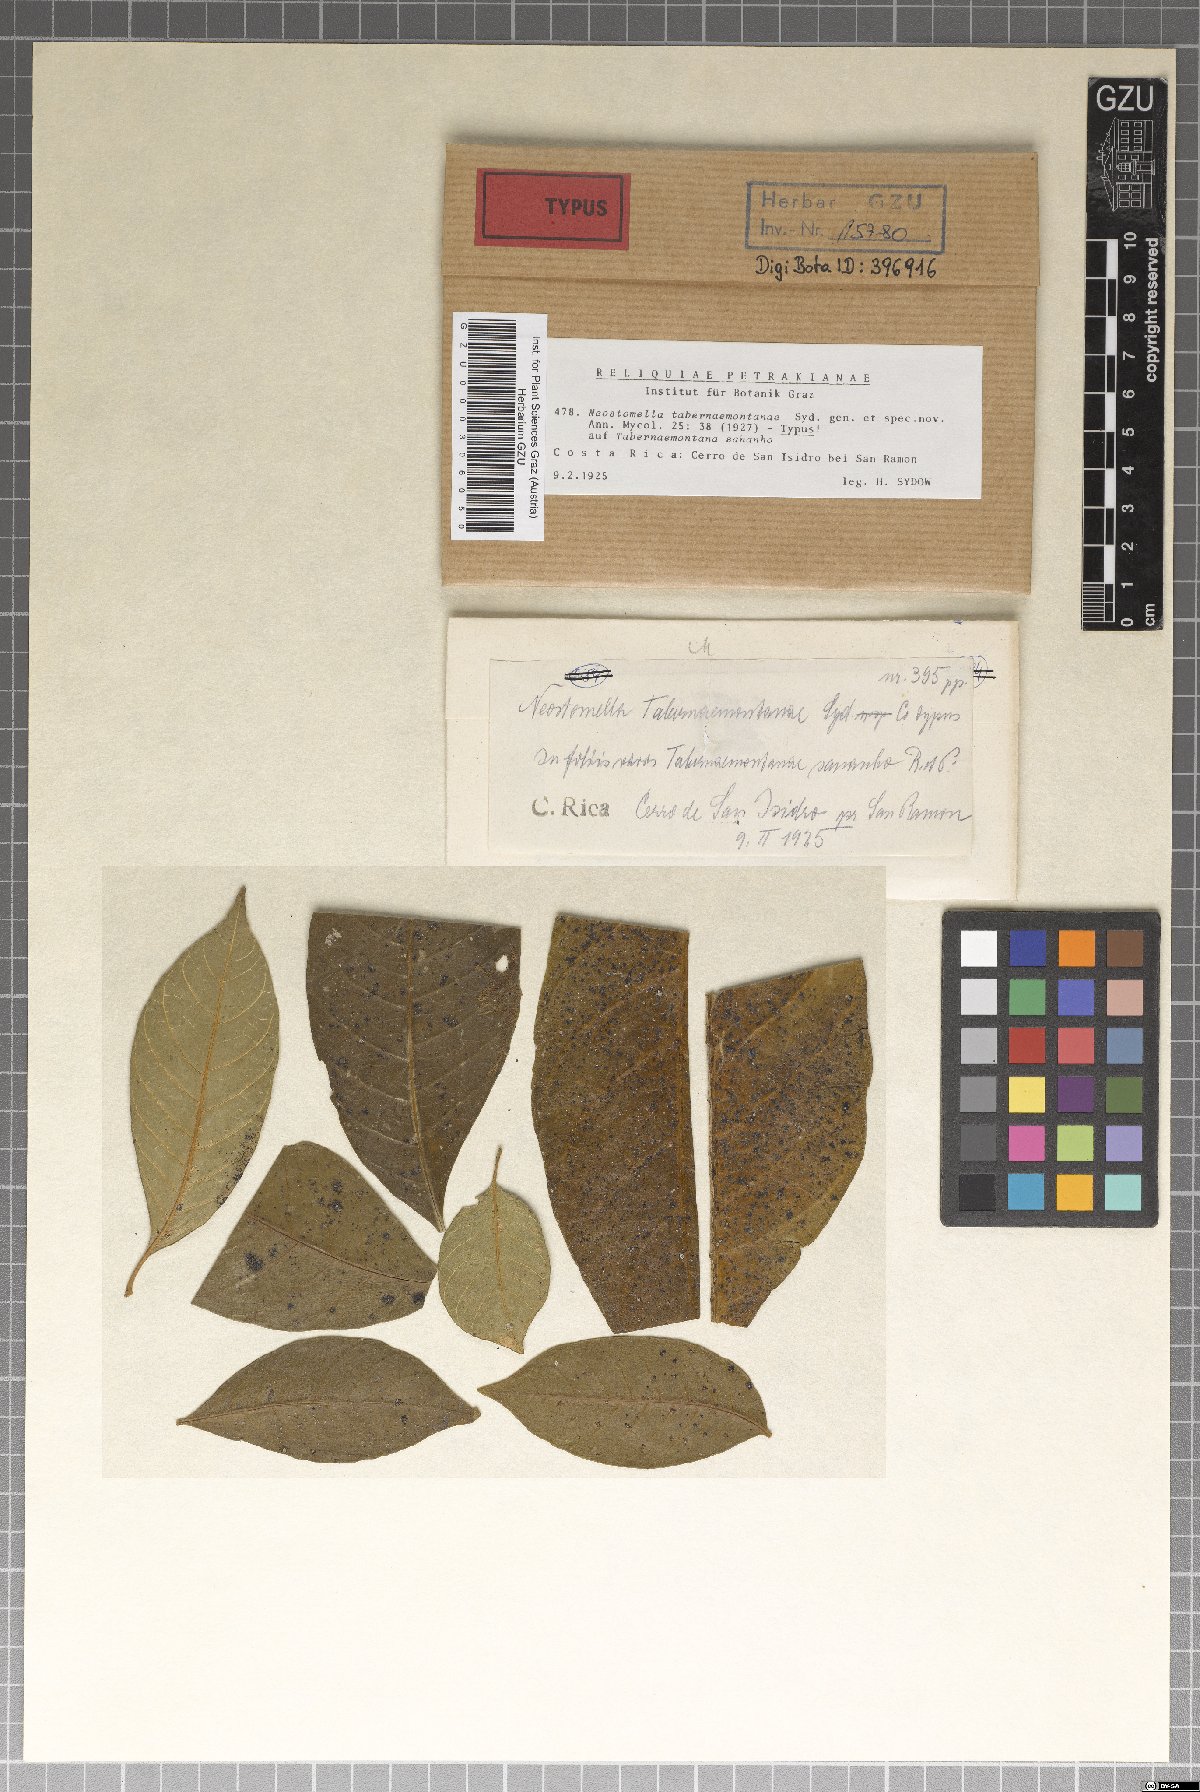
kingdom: Fungi
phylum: Ascomycota
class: Dothideomycetes
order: Asterinales
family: Asterinaceae
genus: Asterina
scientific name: Asterina tabernaemontanae
